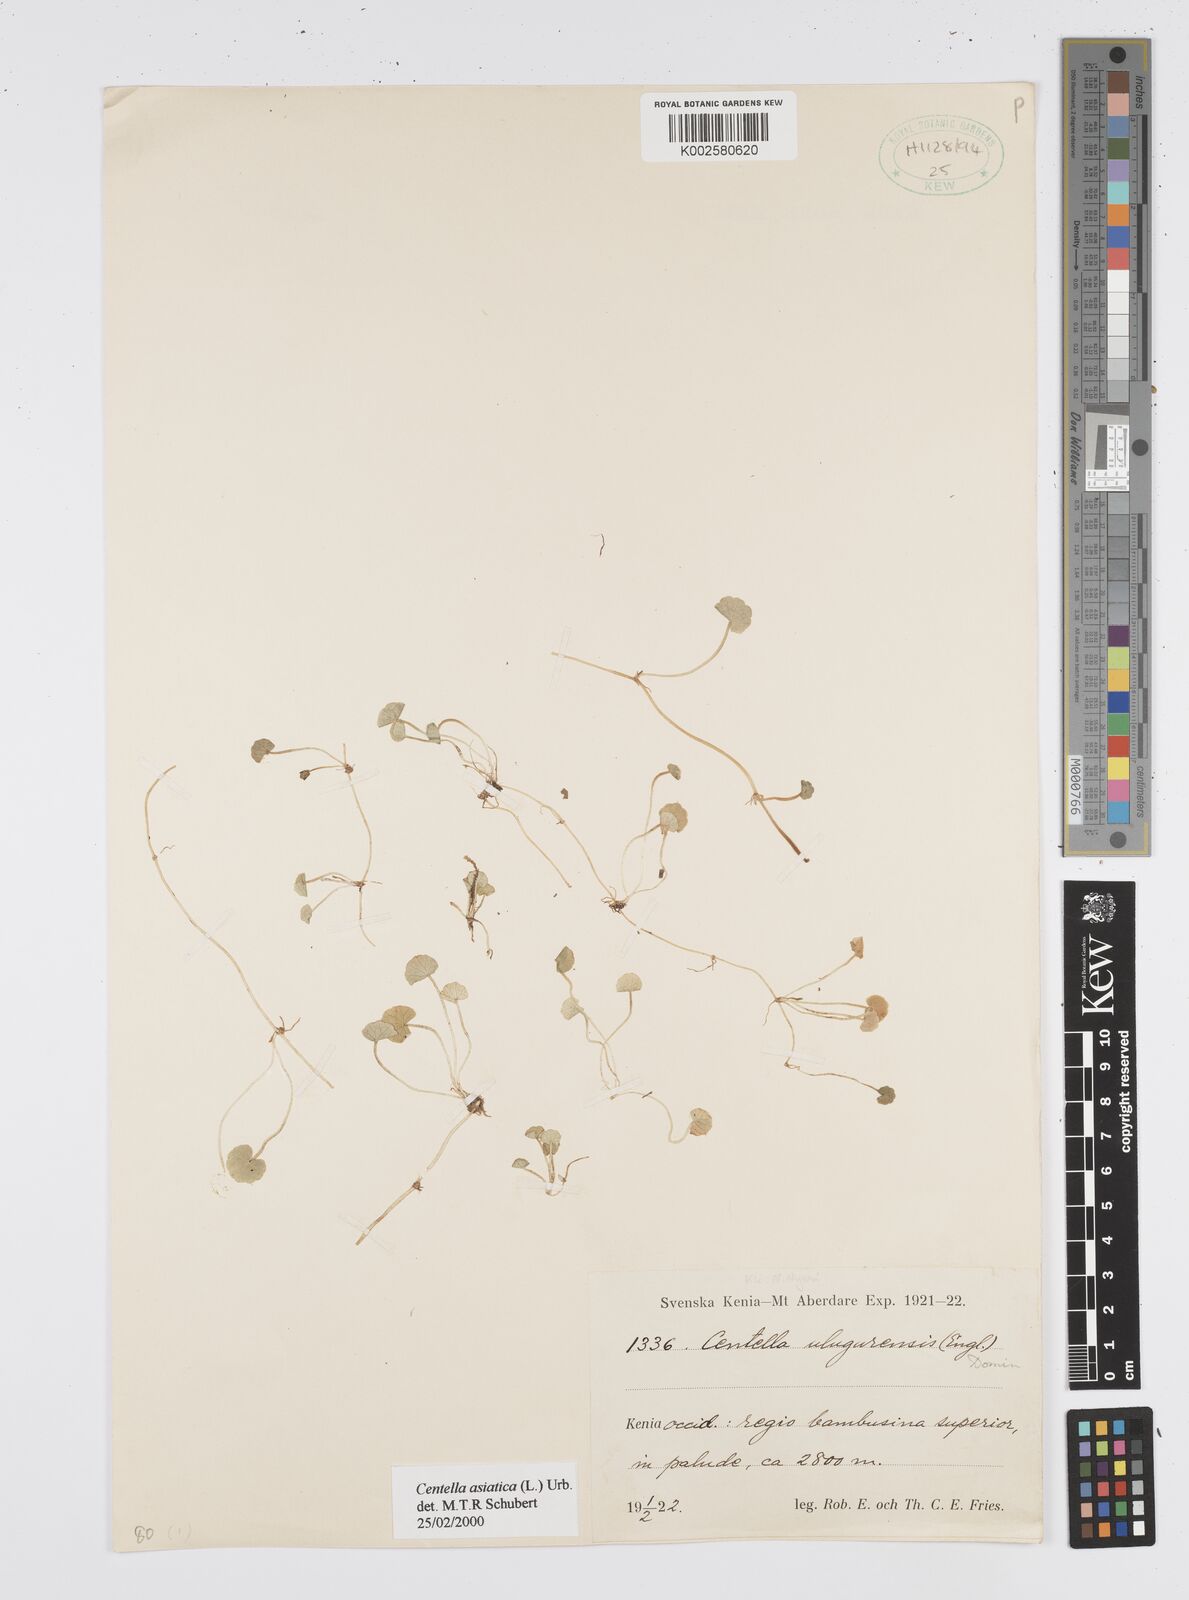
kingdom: Plantae
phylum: Tracheophyta
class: Magnoliopsida
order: Apiales
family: Apiaceae
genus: Centella
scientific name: Centella asiatica
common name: Spadeleaf
